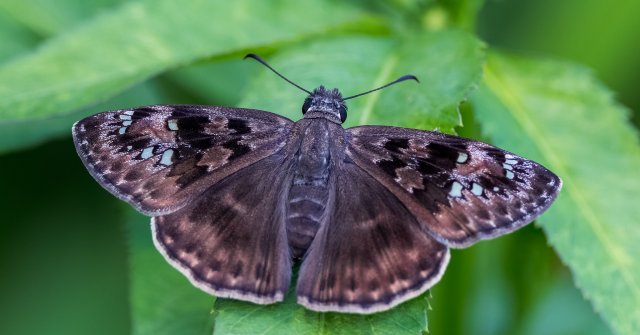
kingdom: Animalia
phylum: Arthropoda
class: Insecta
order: Lepidoptera
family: Hesperiidae
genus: Gesta
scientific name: Gesta
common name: Horace's Duskywing
